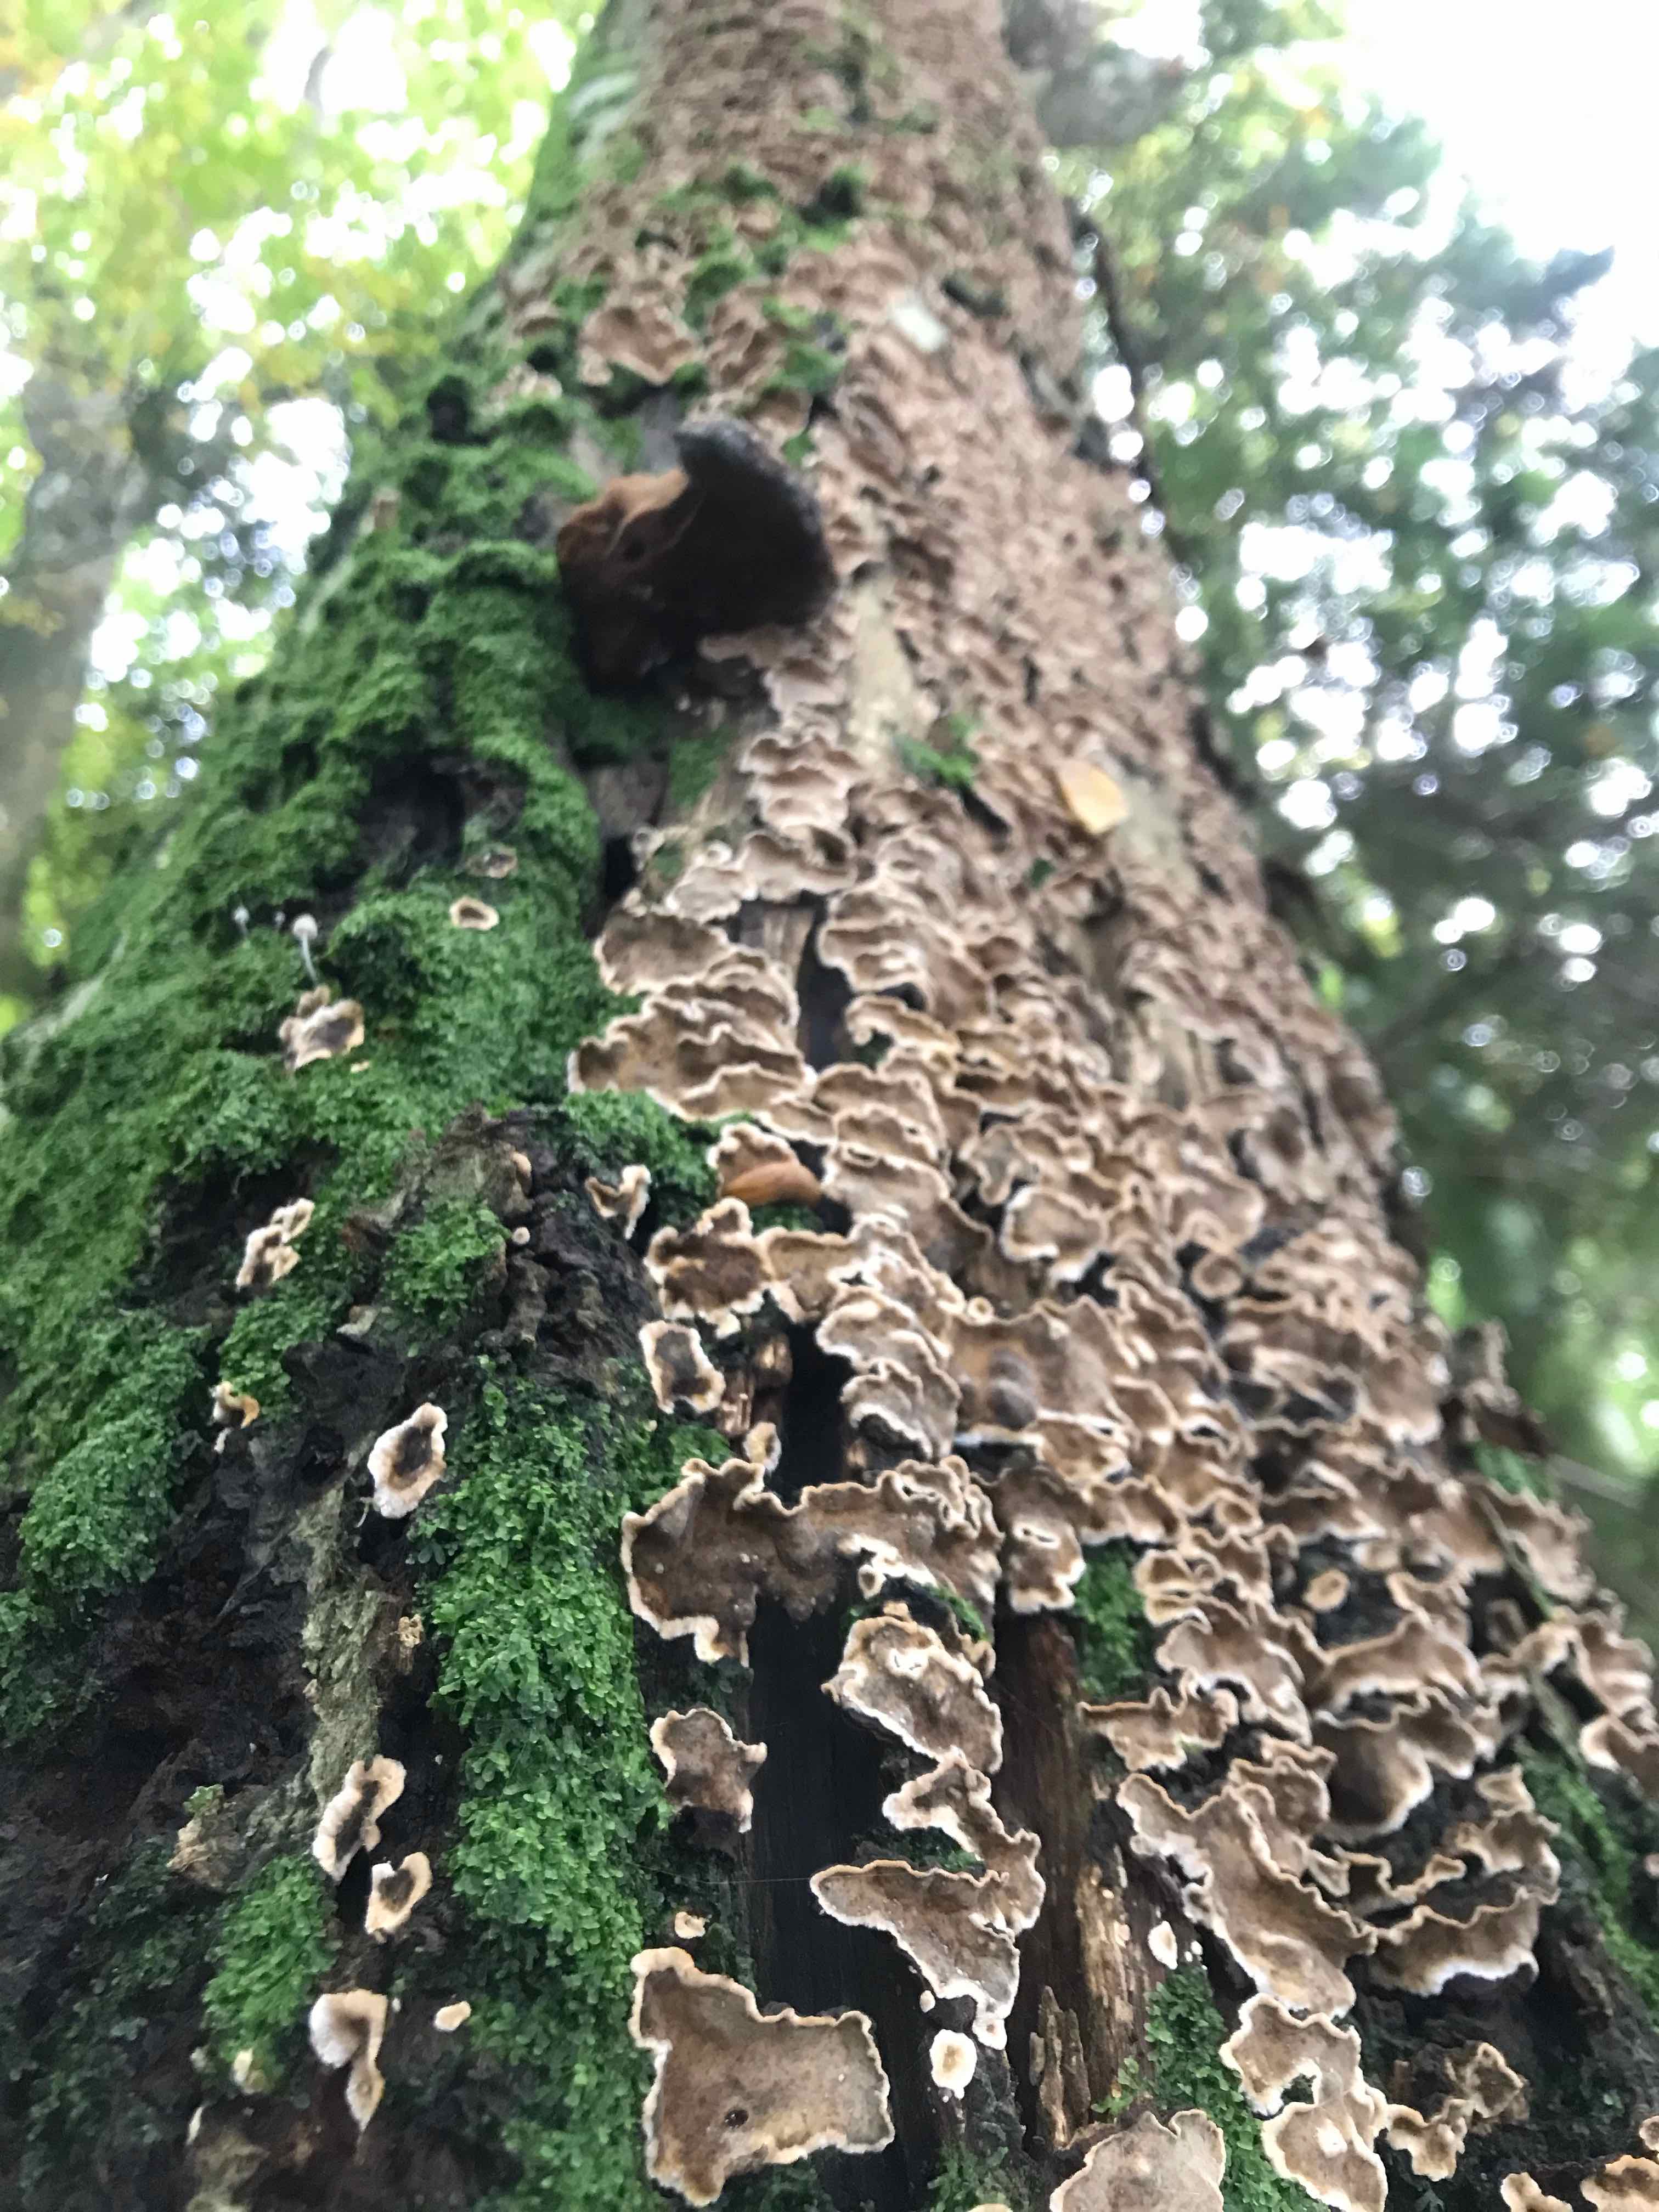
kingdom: Fungi
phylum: Basidiomycota
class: Agaricomycetes
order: Russulales
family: Stereaceae
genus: Stereum
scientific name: Stereum rugosum
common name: rynket lædersvamp
